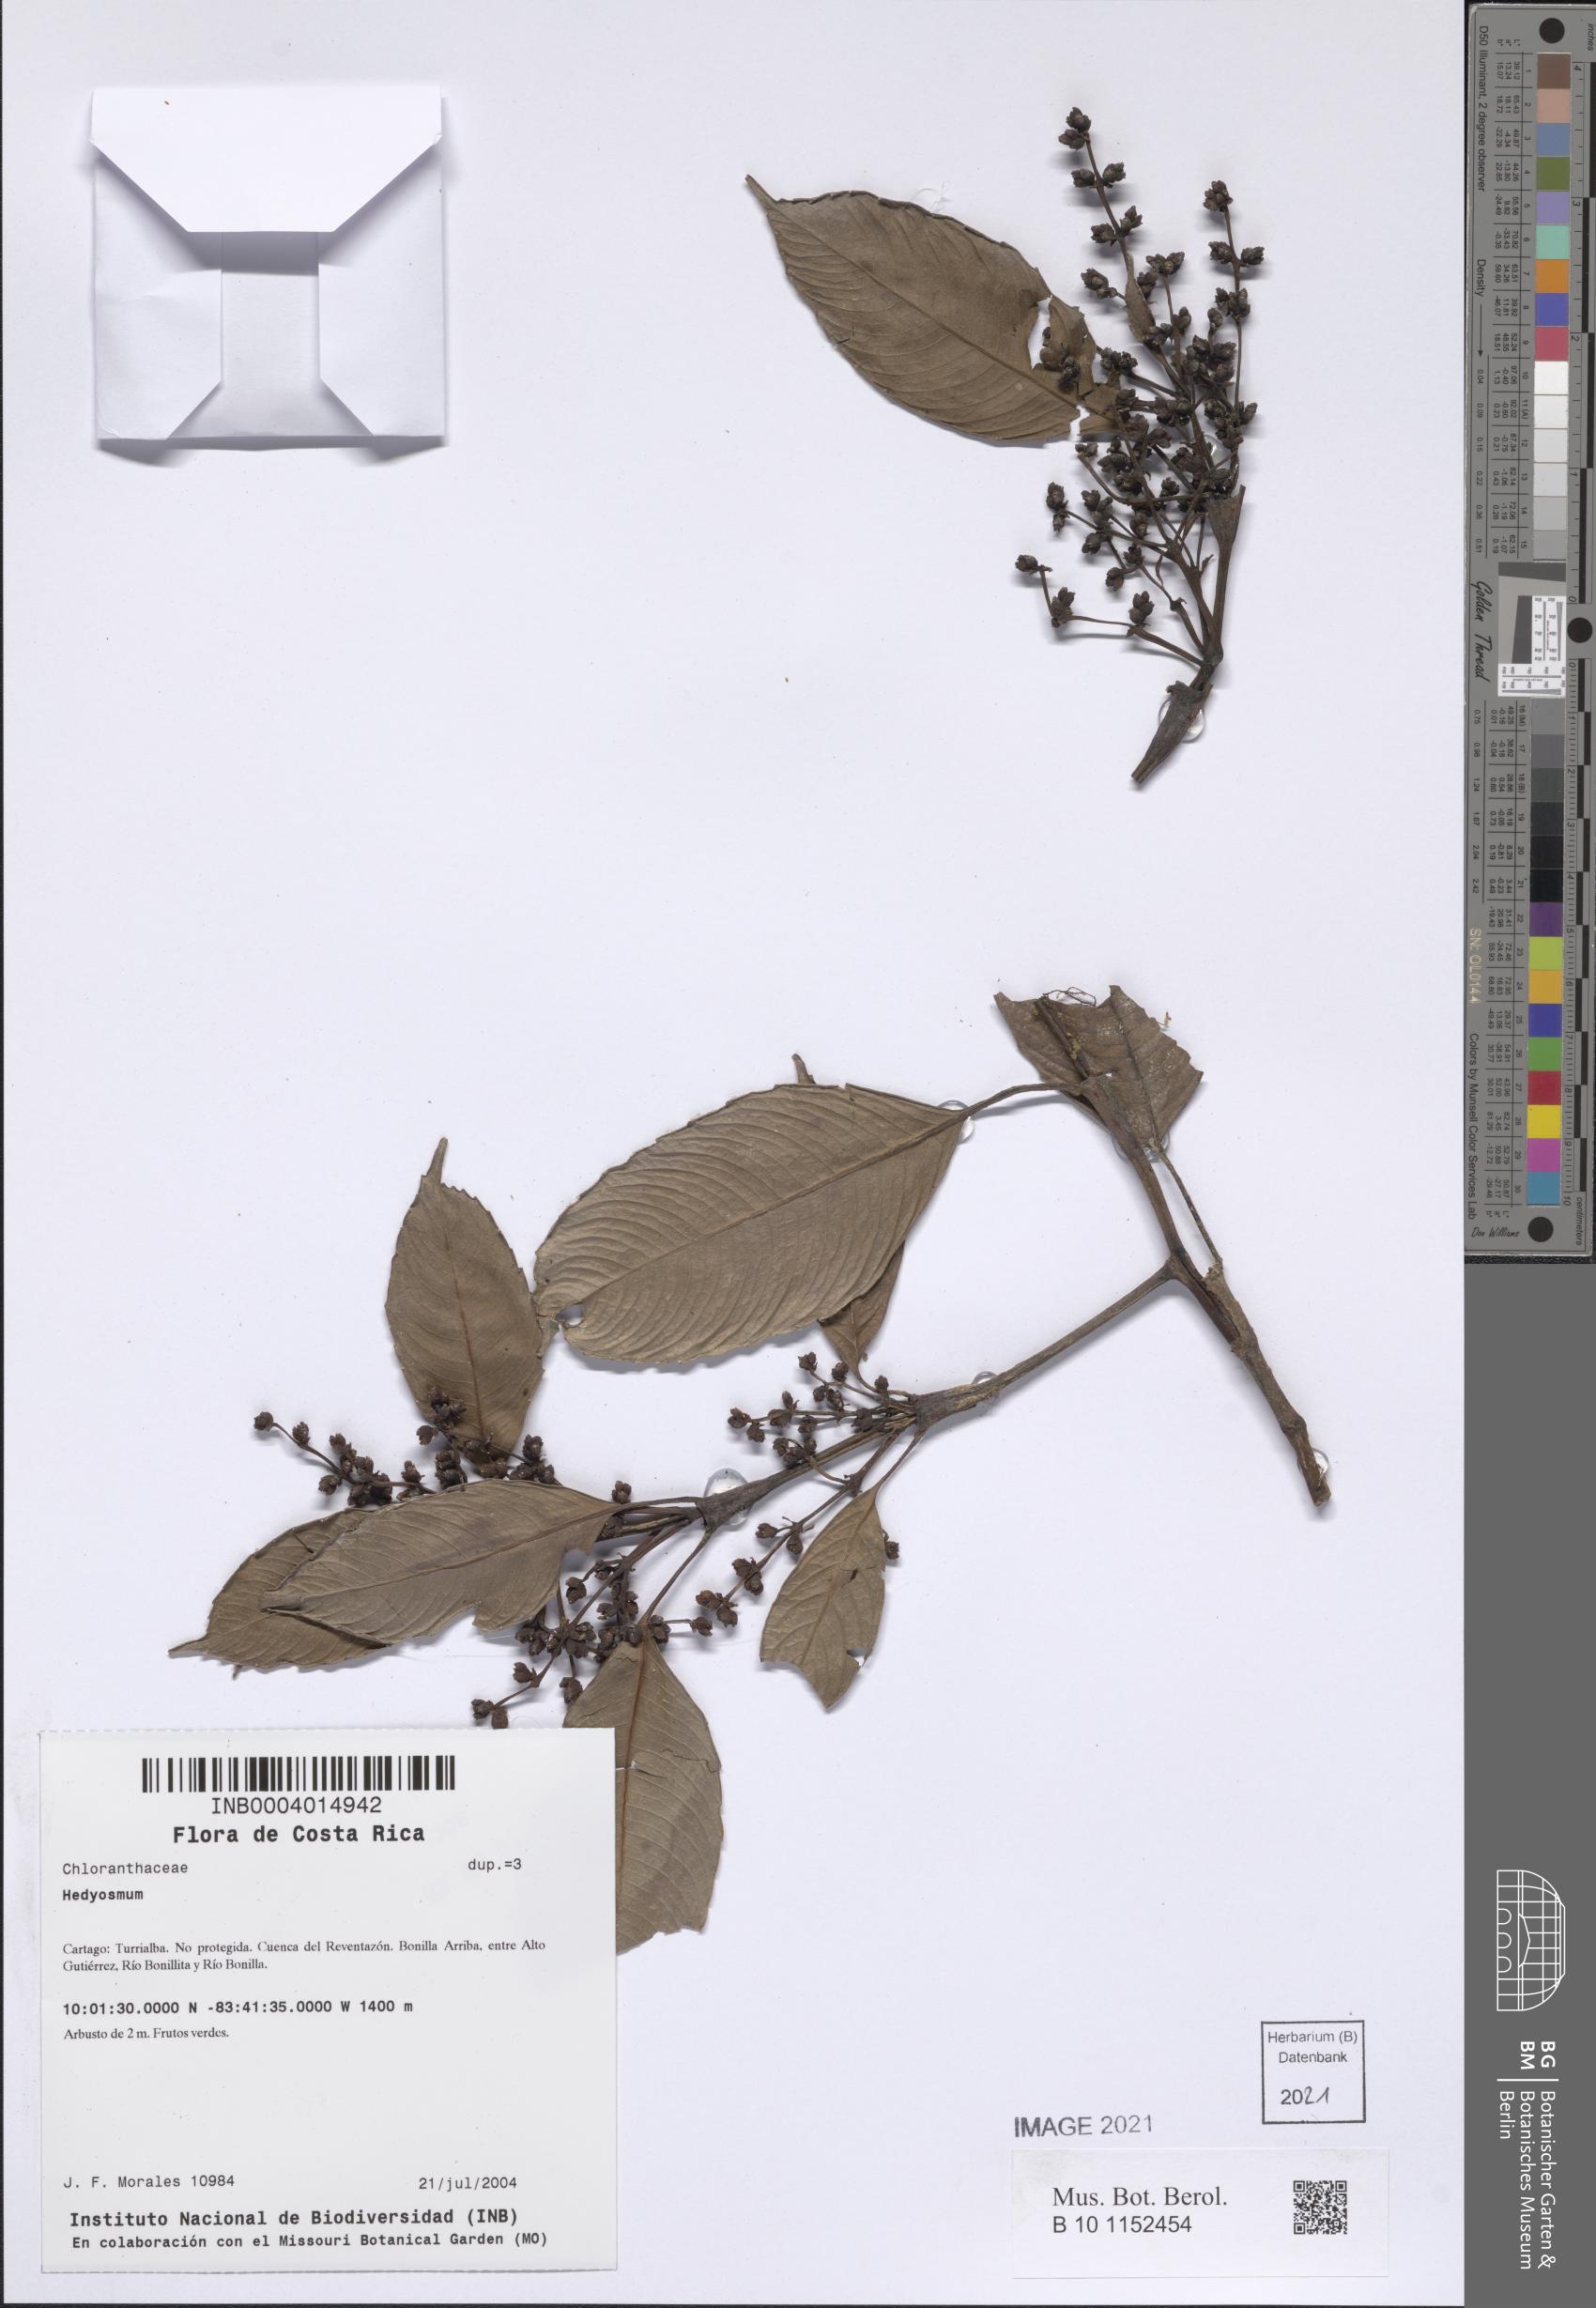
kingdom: Plantae
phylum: Tracheophyta
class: Magnoliopsida
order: Chloranthales
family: Chloranthaceae
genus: Hedyosmum
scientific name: Hedyosmum
